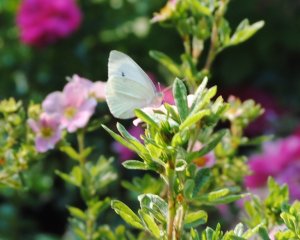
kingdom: Animalia
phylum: Arthropoda
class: Insecta
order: Lepidoptera
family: Pieridae
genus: Pieris
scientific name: Pieris rapae
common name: Cabbage White
